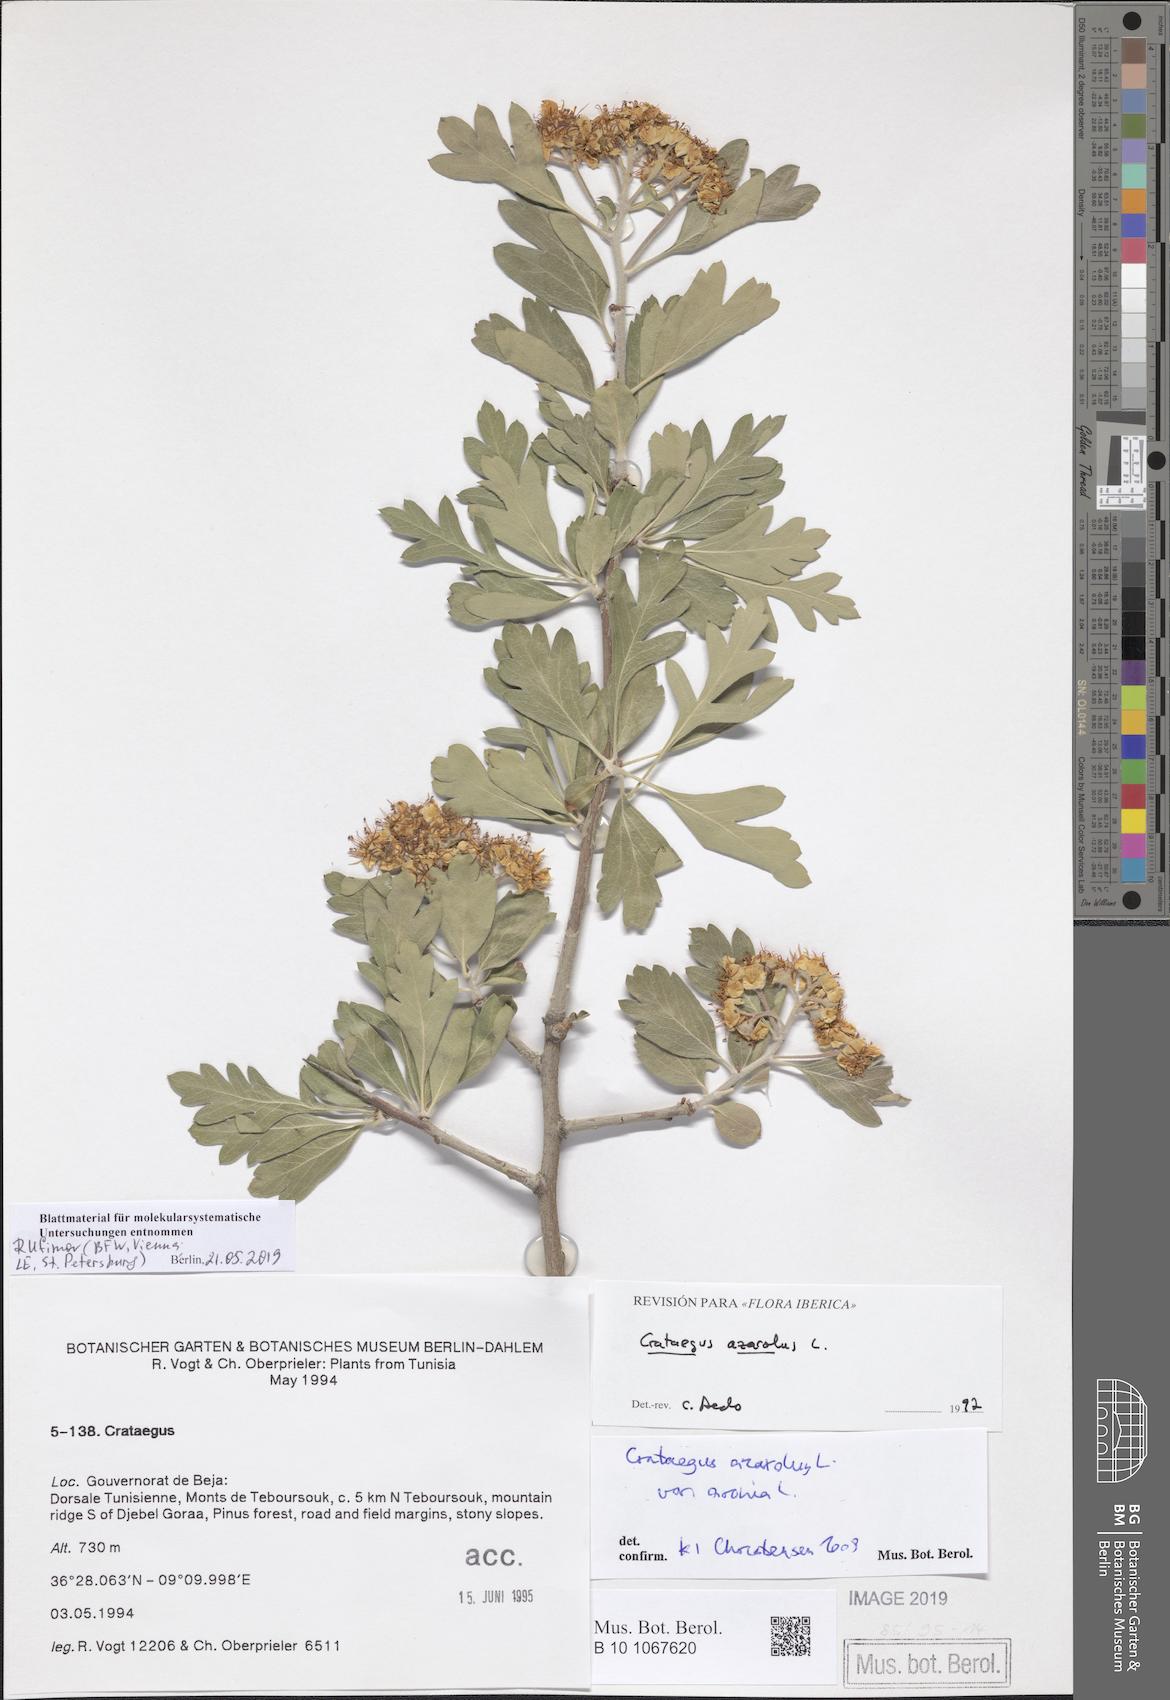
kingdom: Plantae
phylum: Tracheophyta
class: Magnoliopsida
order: Rosales
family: Rosaceae
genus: Crataegus
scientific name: Crataegus azarolus
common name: Azarole
